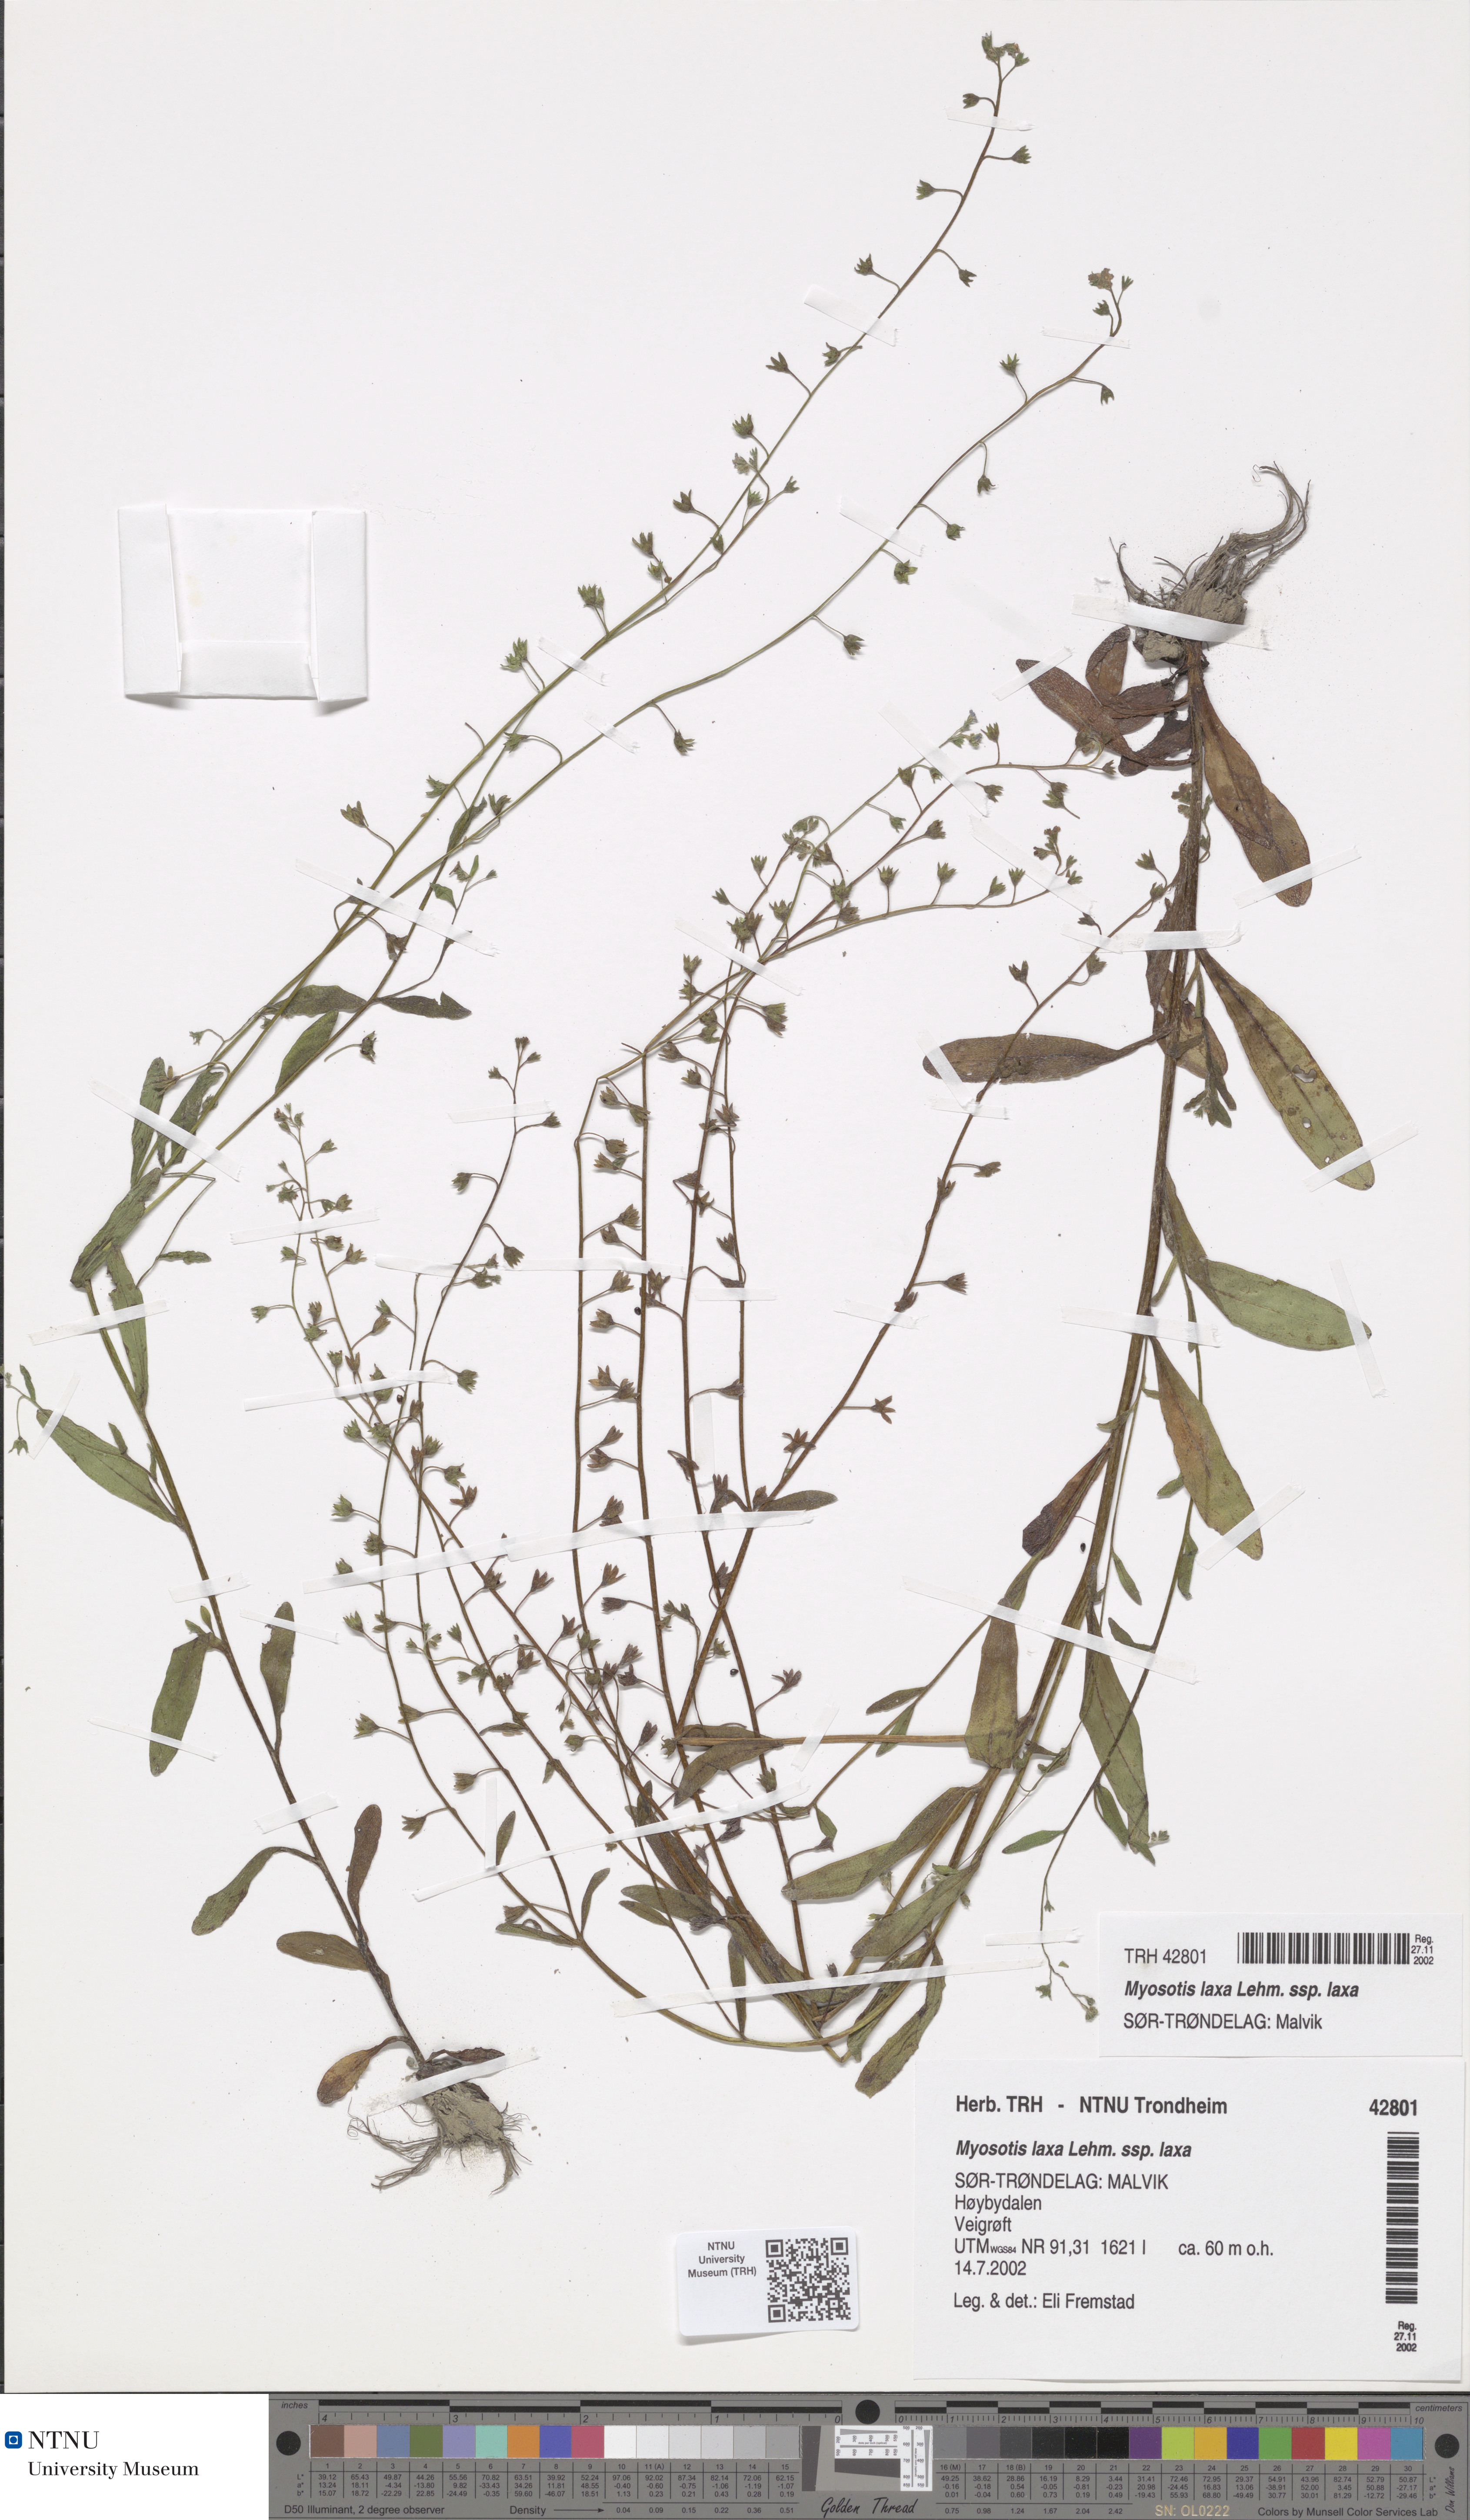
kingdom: Plantae
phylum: Tracheophyta
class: Magnoliopsida
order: Boraginales
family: Boraginaceae
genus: Myosotis
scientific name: Myosotis laxa
